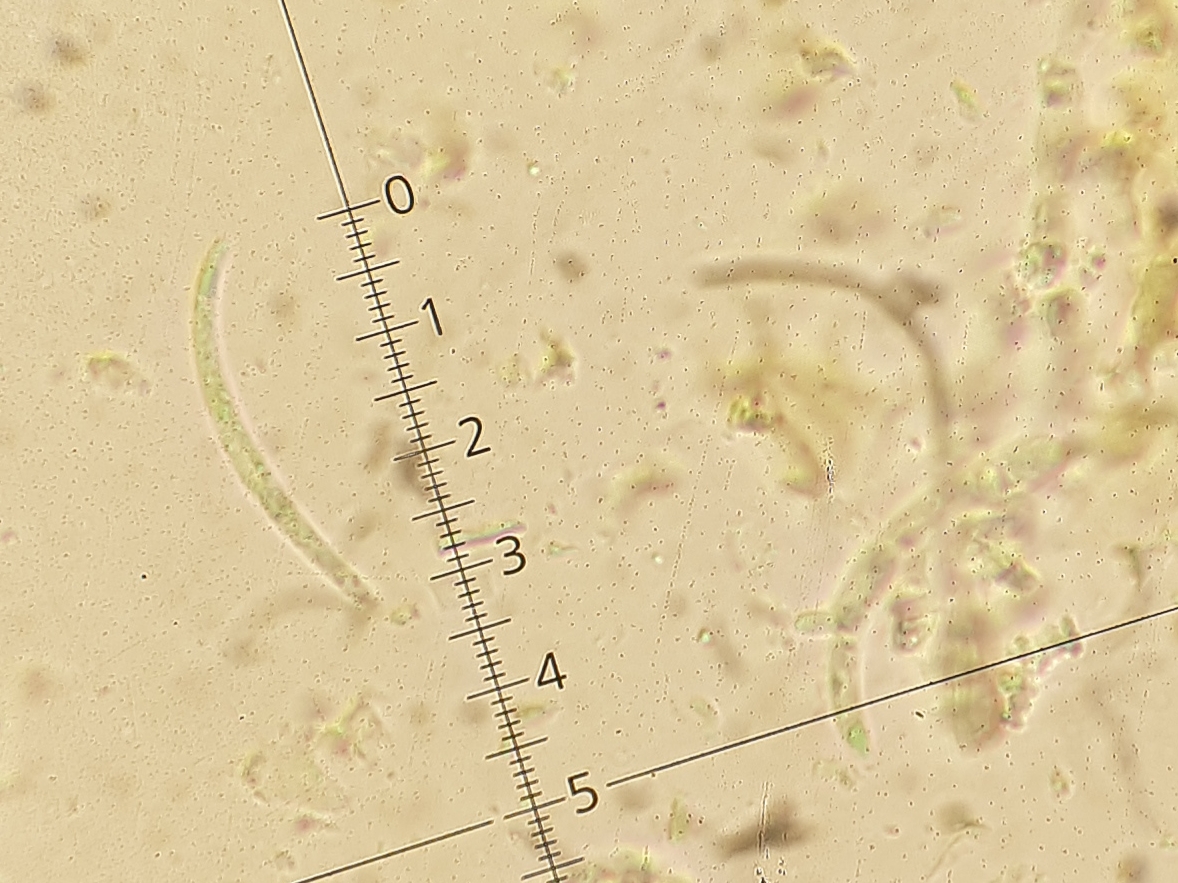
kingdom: Fungi
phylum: Ascomycota
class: Dothideomycetes
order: Capnodiales
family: Mycosphaerellaceae
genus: Septoria
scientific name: Septoria cornicola
